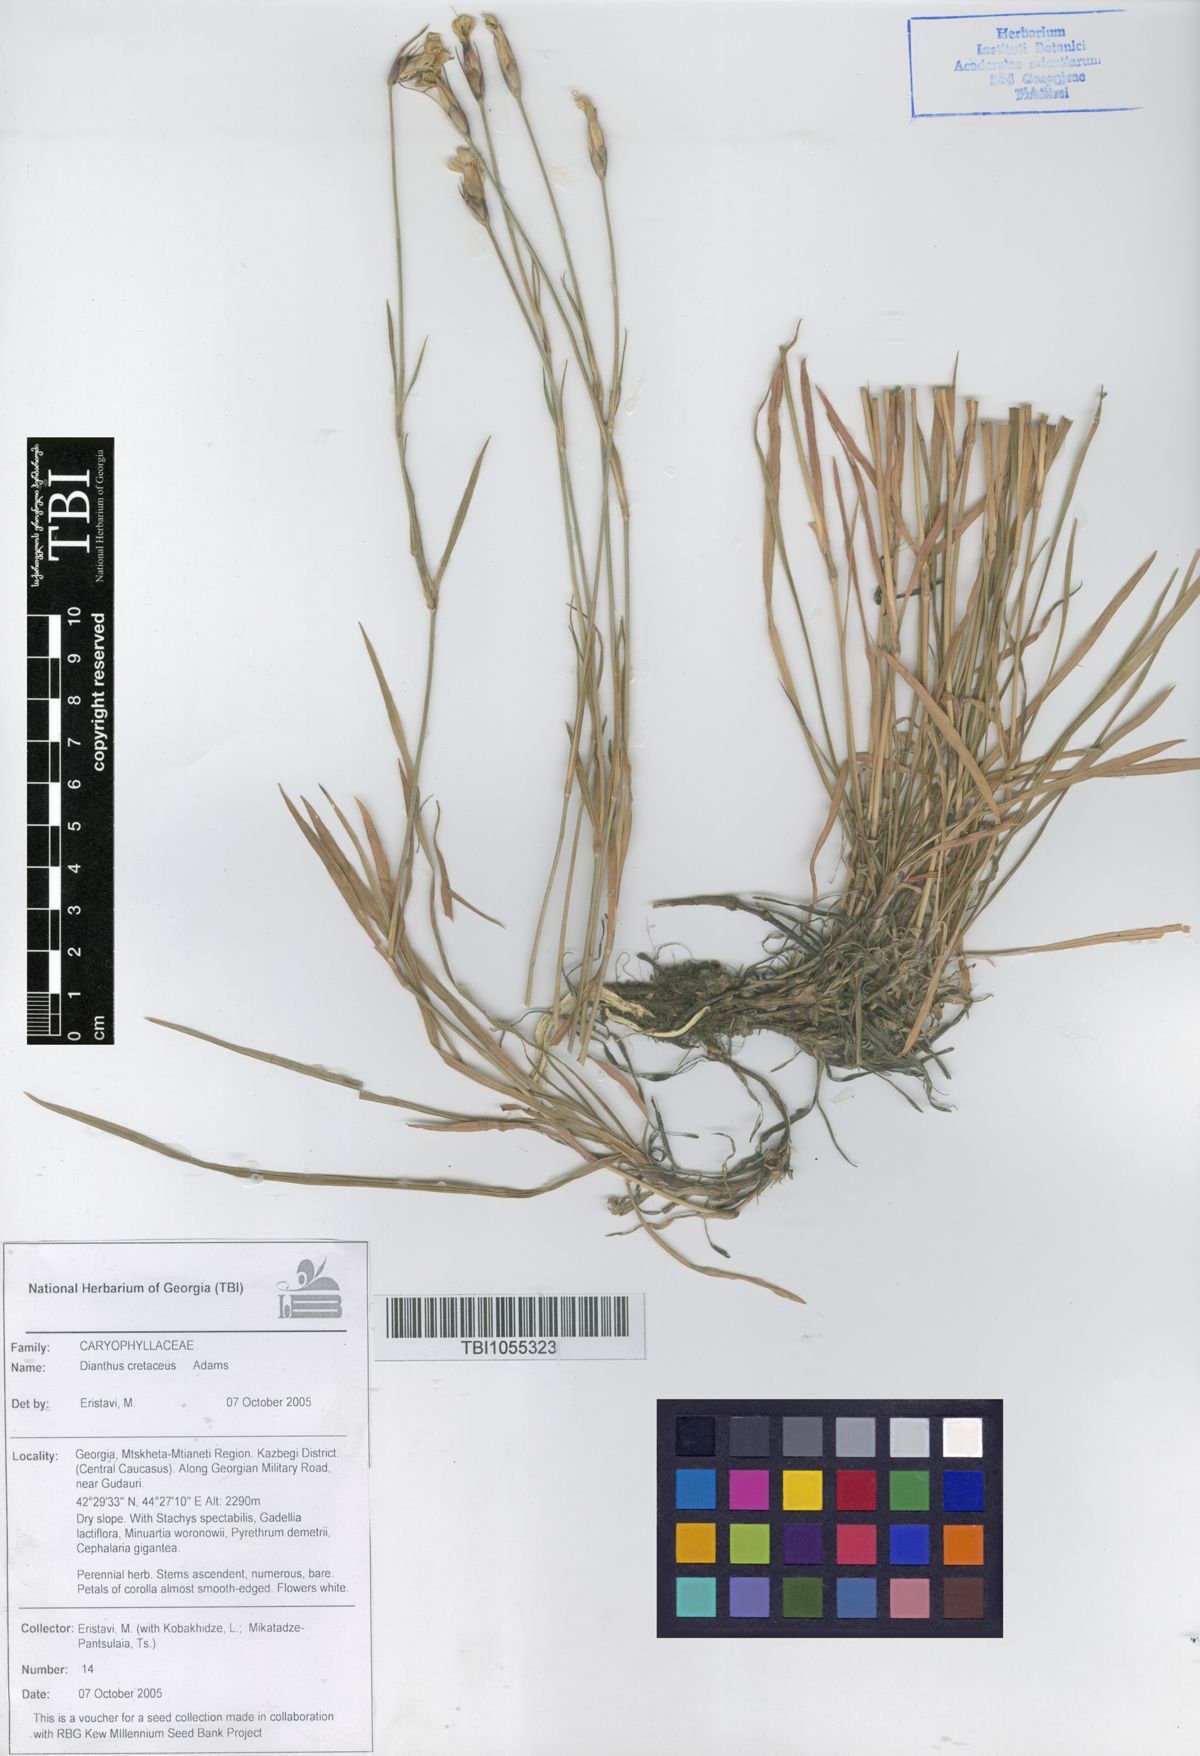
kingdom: Plantae
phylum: Tracheophyta
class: Magnoliopsida
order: Caryophyllales
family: Caryophyllaceae
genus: Dianthus
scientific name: Dianthus cretaceus
